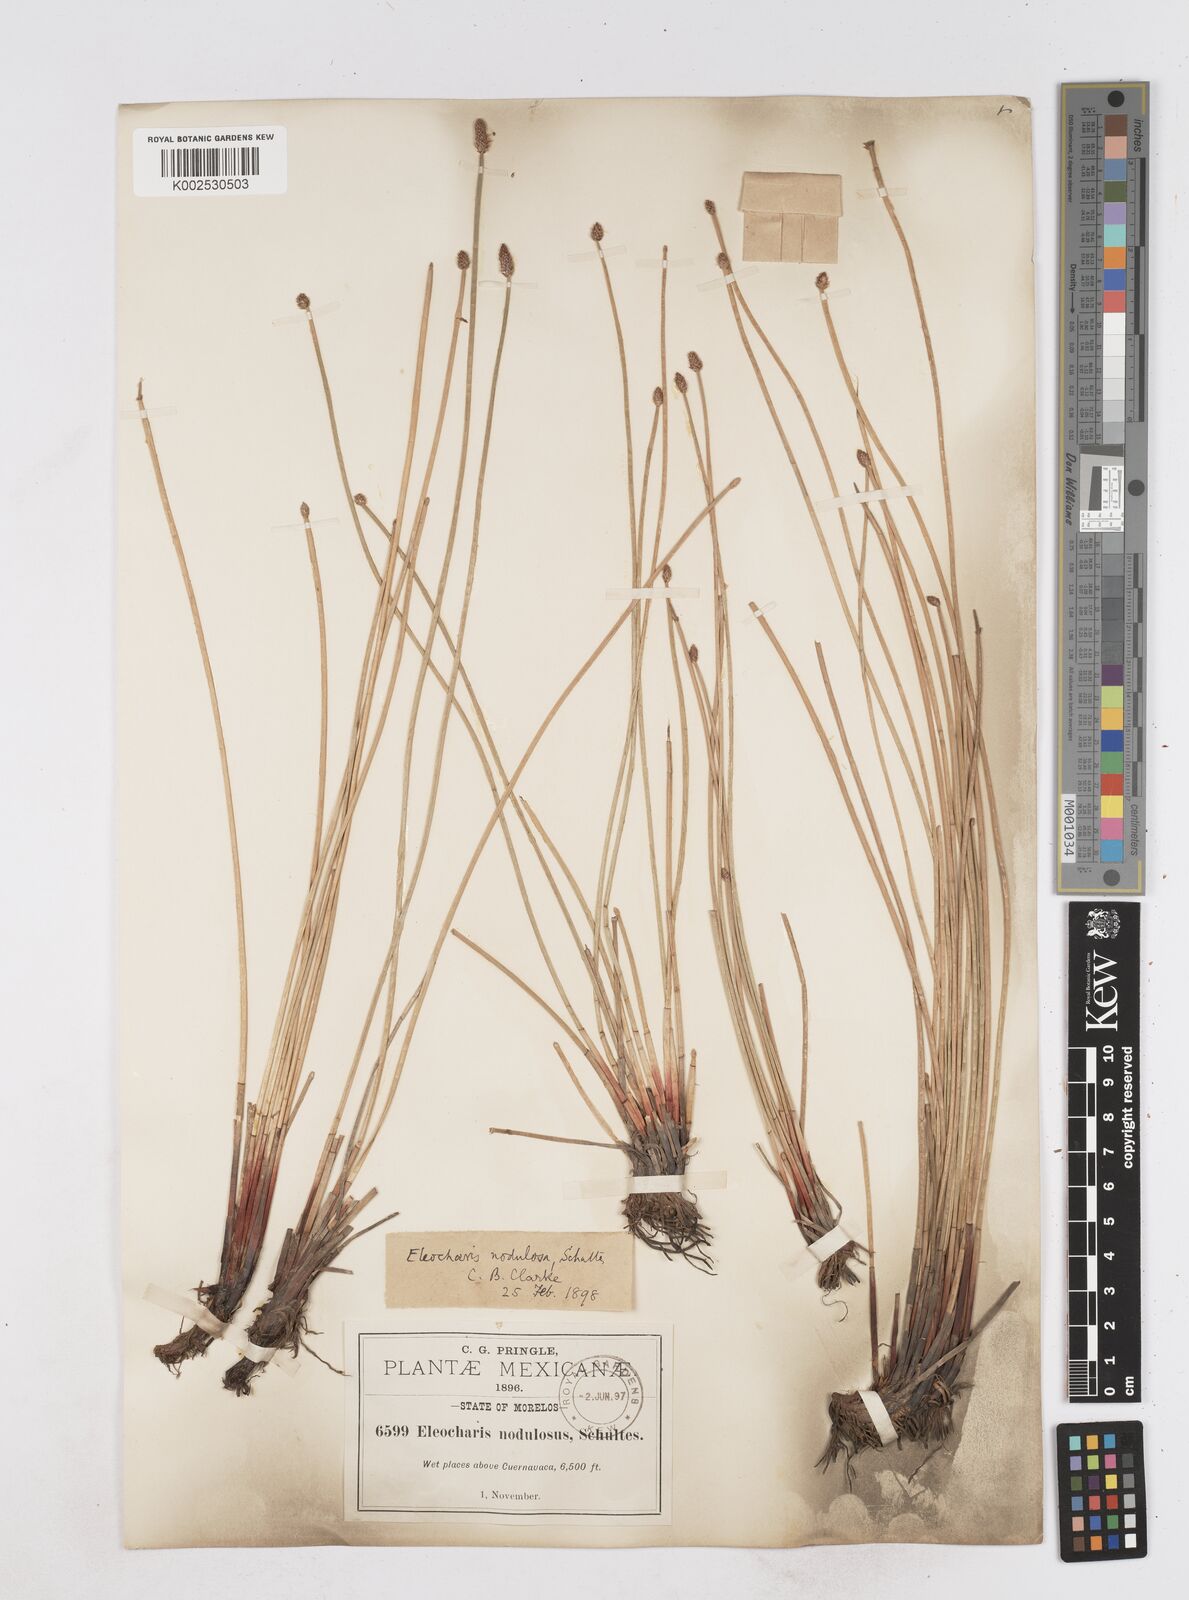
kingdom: Plantae
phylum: Tracheophyta
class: Liliopsida
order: Poales
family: Cyperaceae
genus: Eleocharis
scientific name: Eleocharis montana
